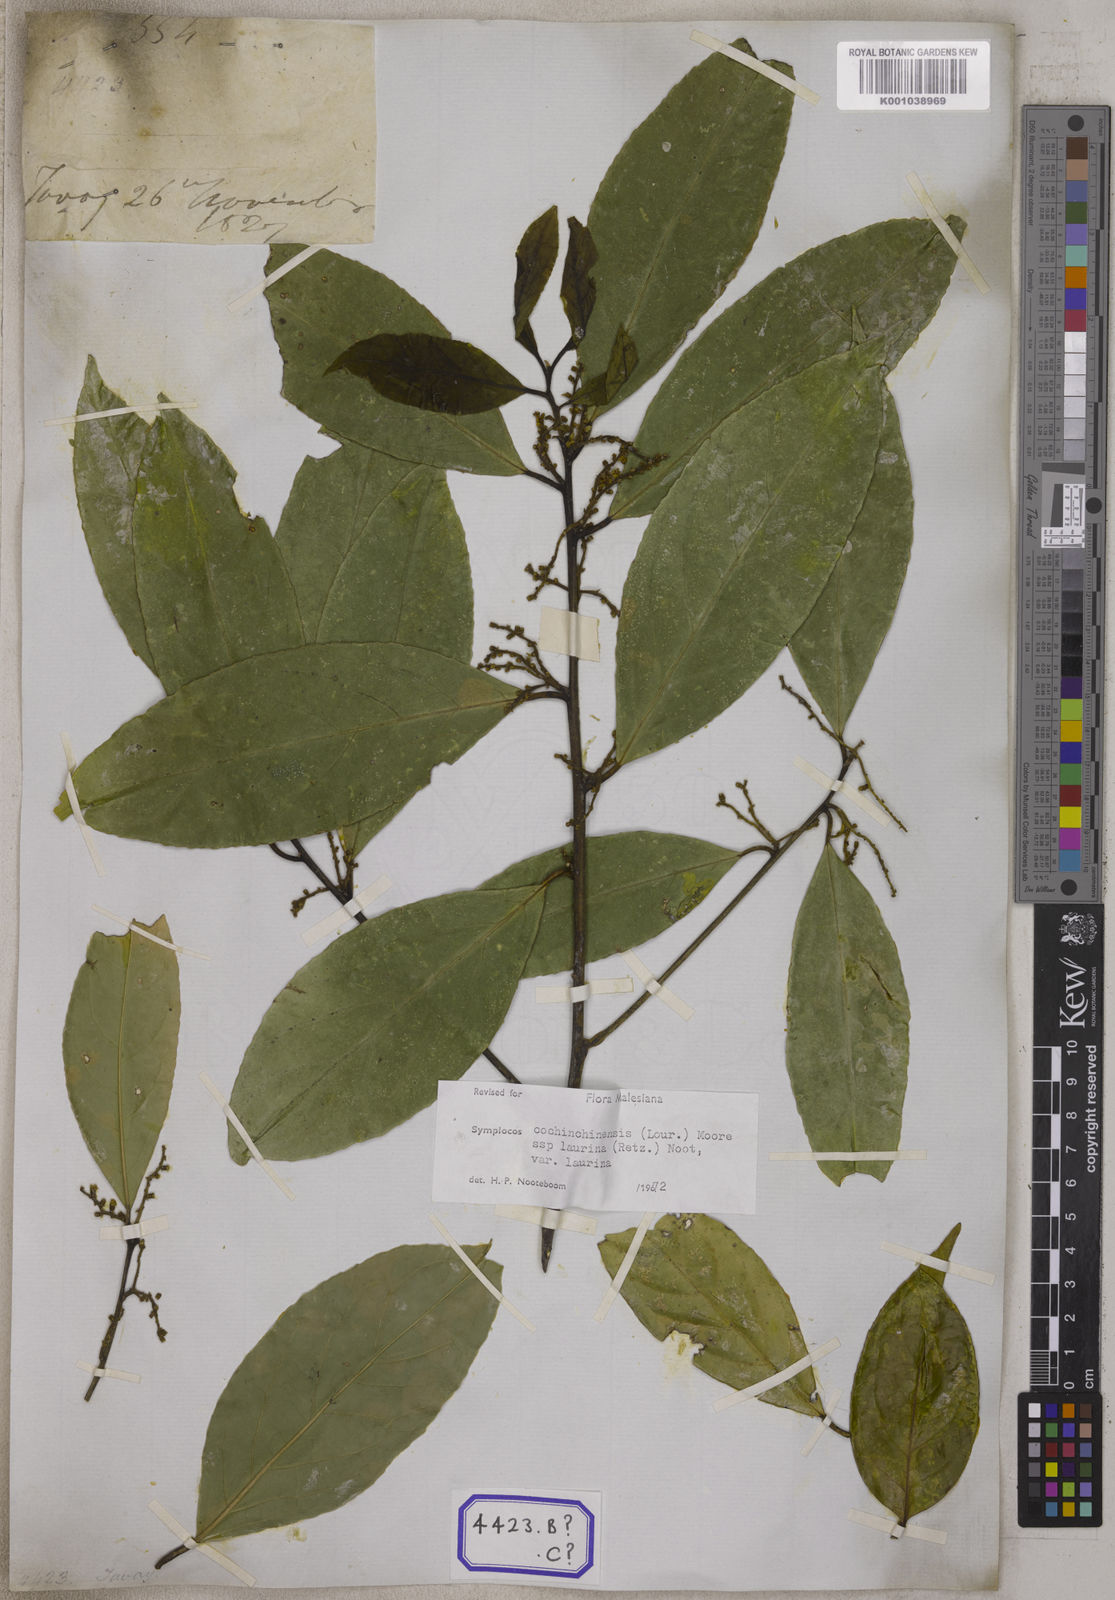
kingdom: Plantae
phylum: Tracheophyta
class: Magnoliopsida
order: Ericales
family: Symplocaceae
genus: Symplocos
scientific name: Symplocos
